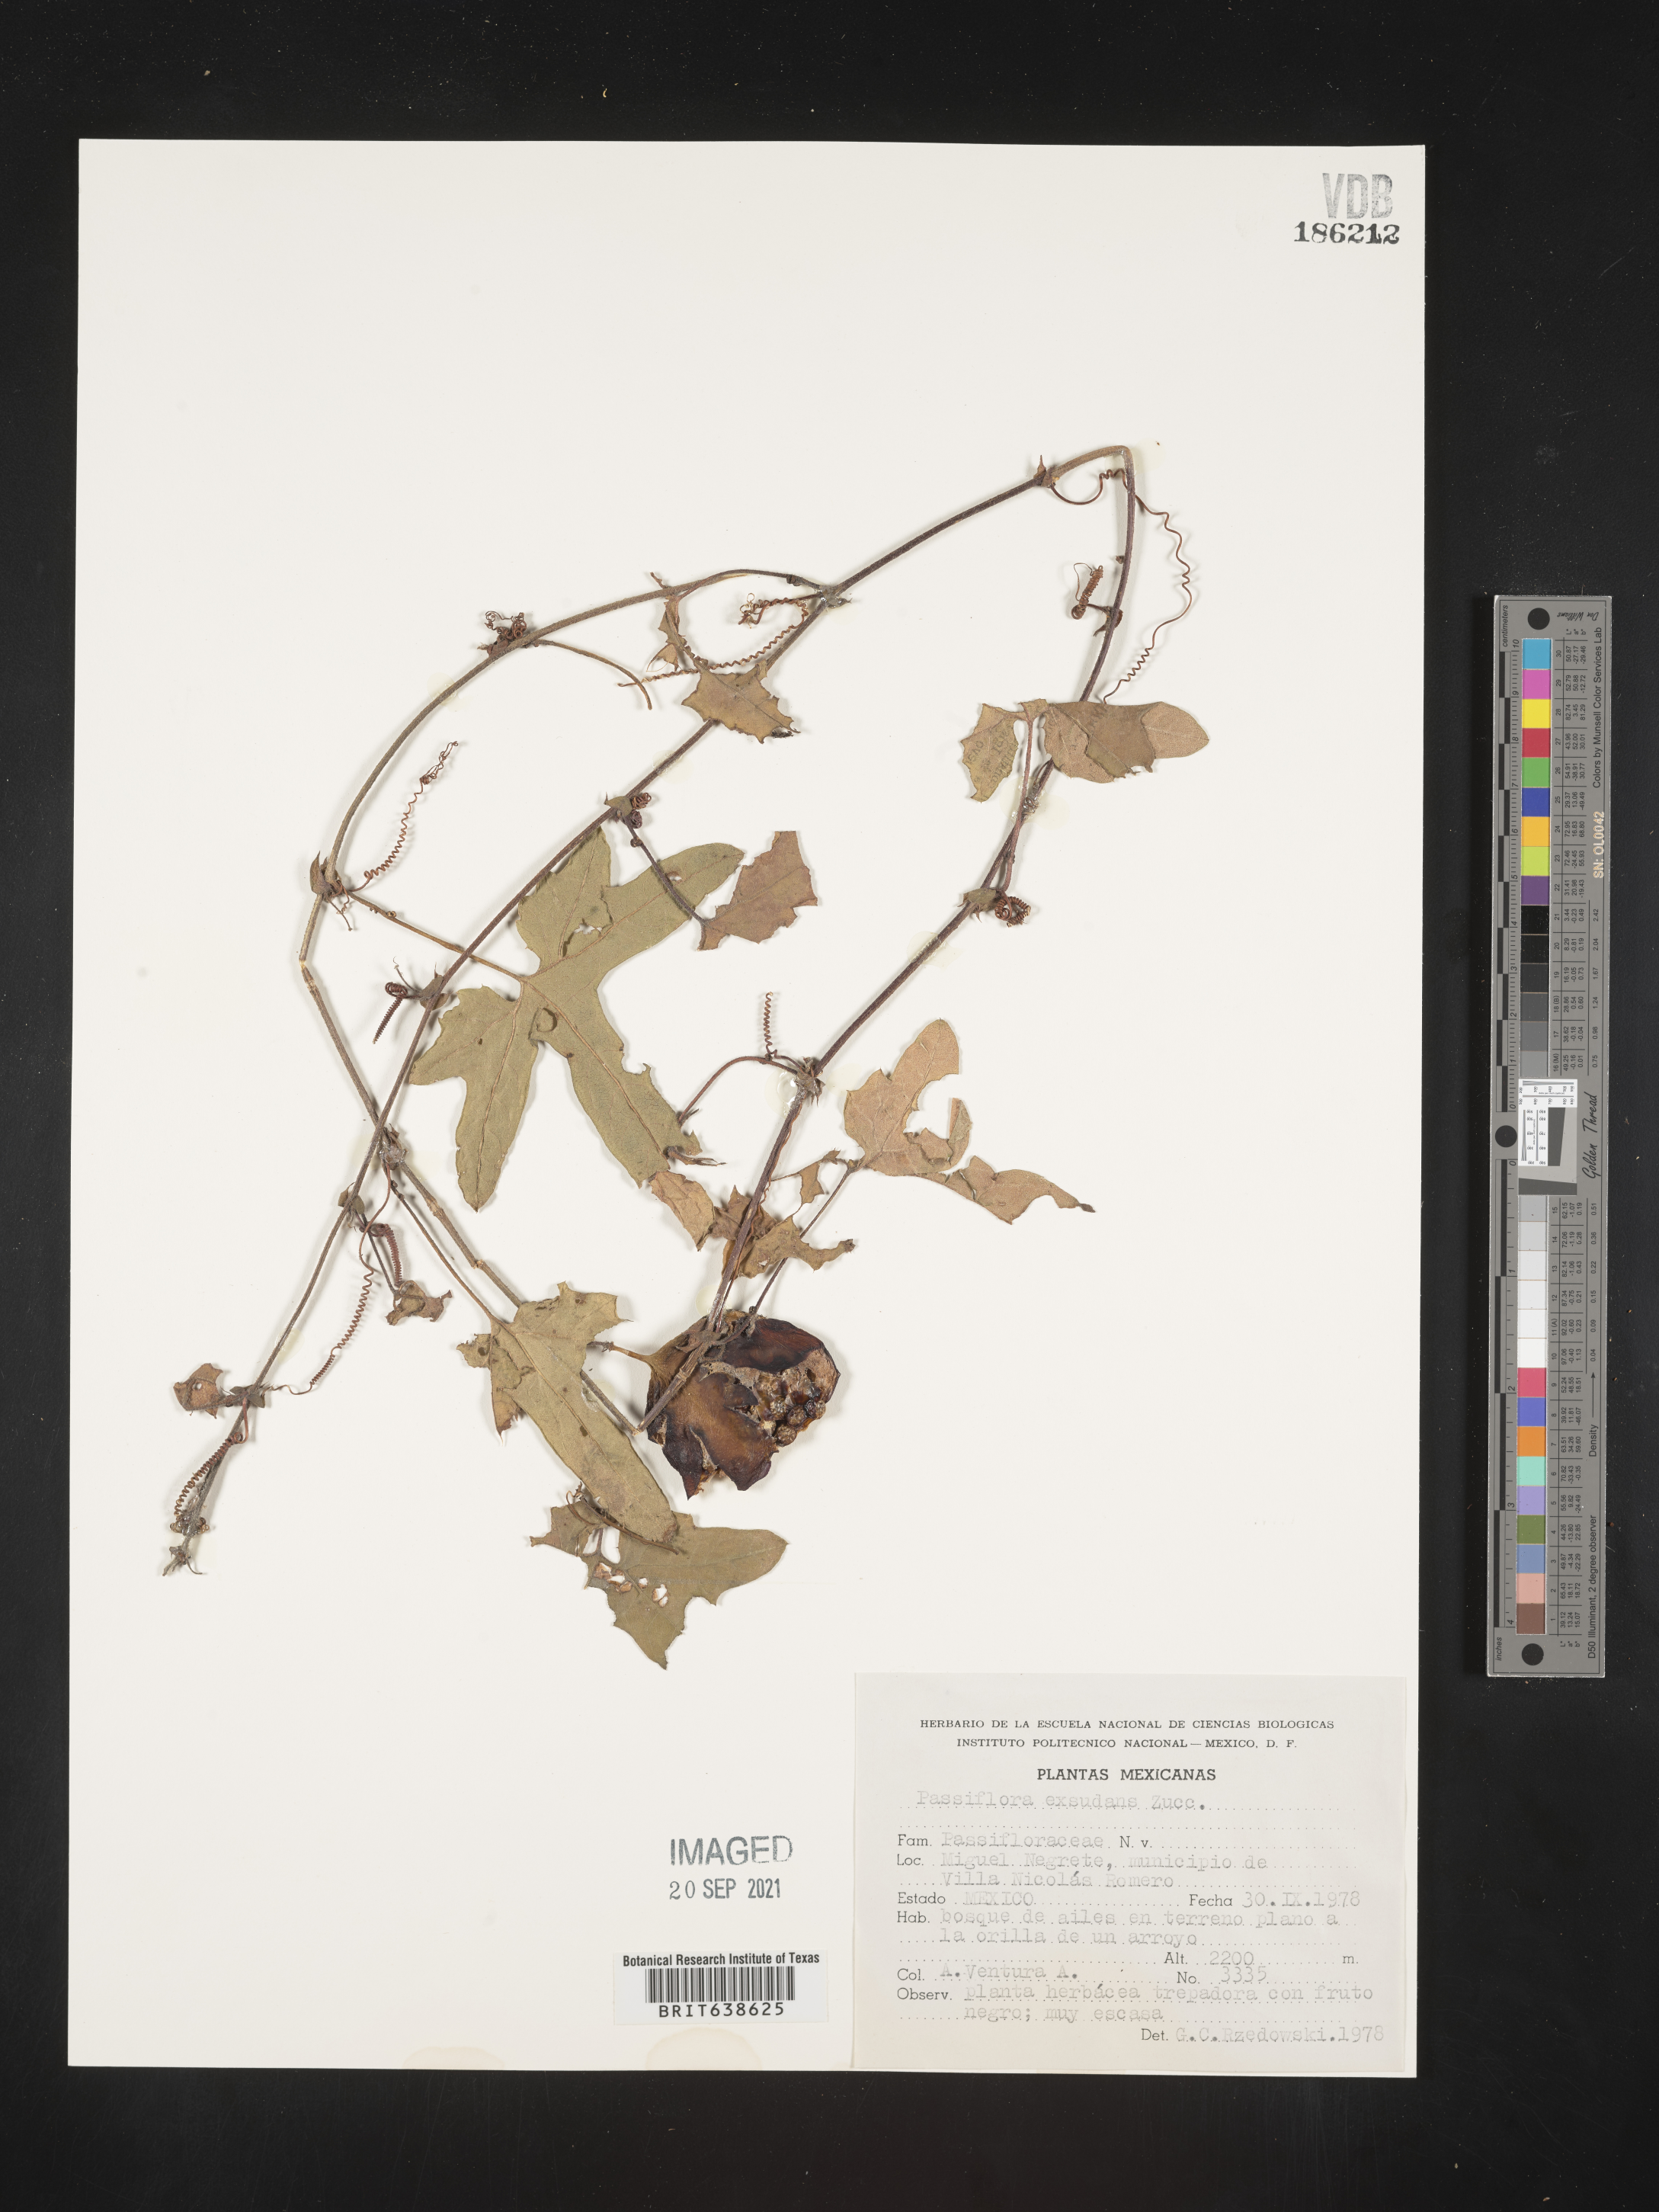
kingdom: Plantae
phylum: Tracheophyta
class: Magnoliopsida
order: Malpighiales
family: Passifloraceae
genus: Passiflora
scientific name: Passiflora
